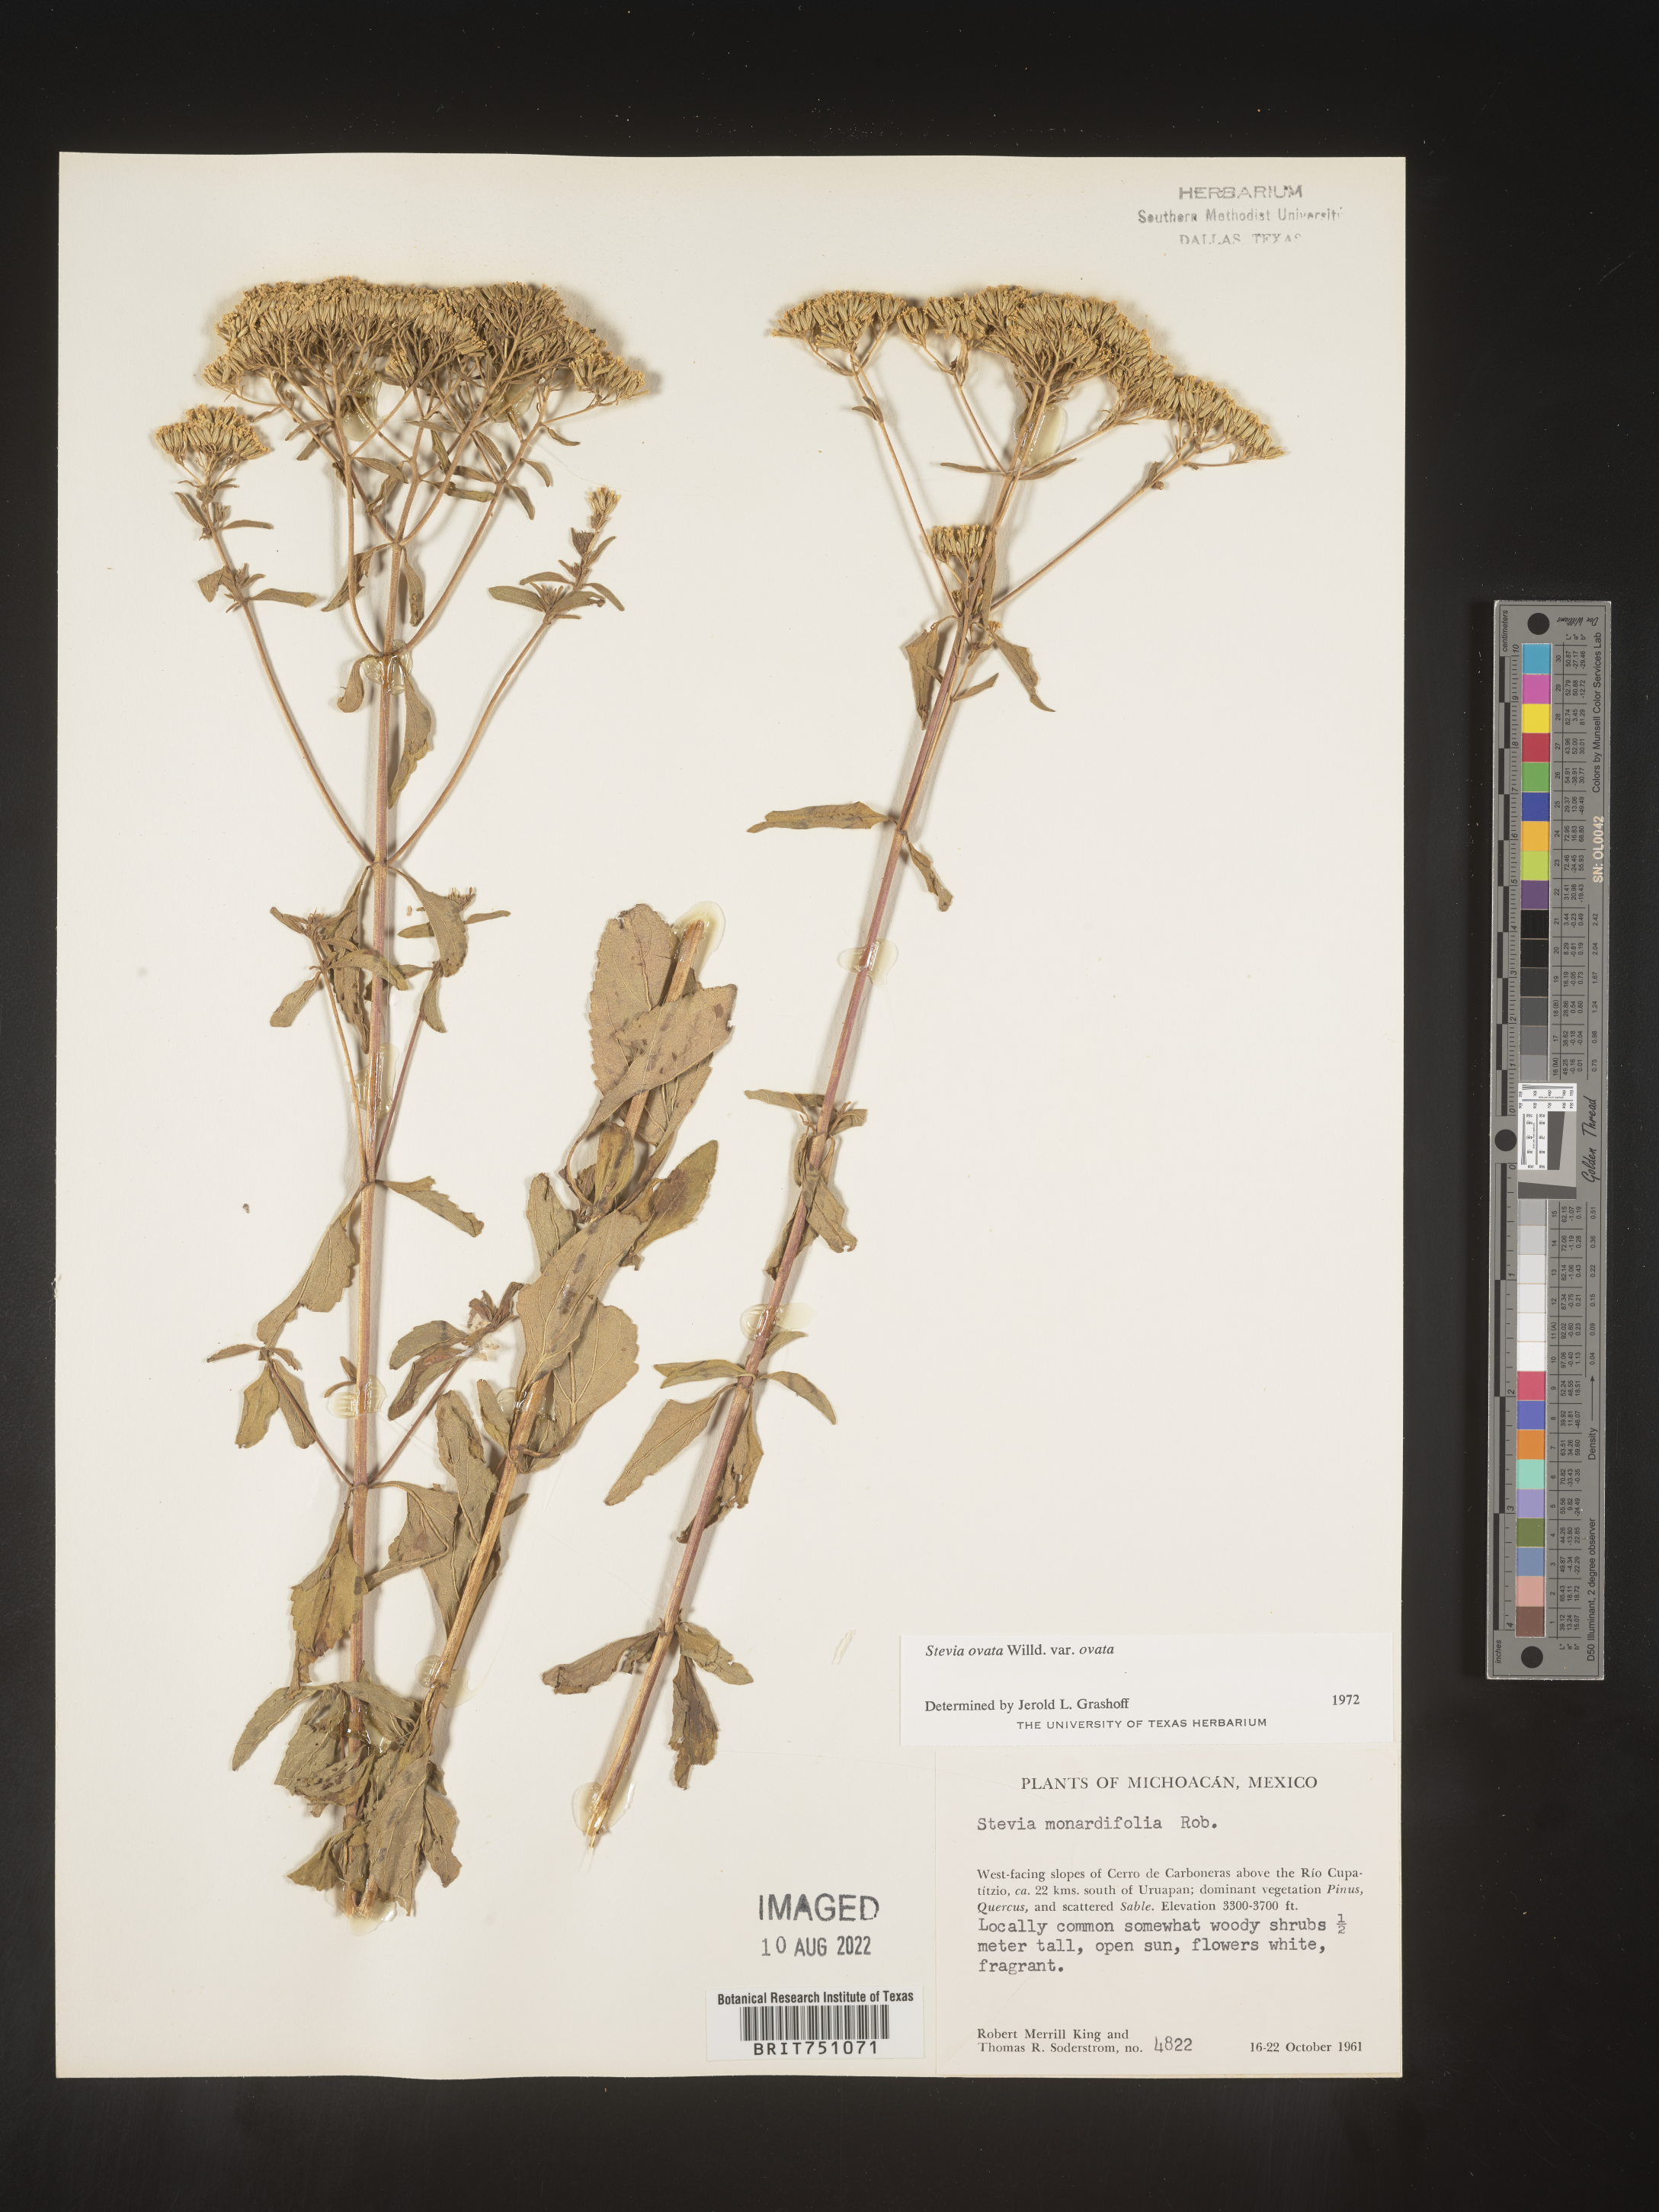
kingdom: Plantae
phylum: Tracheophyta
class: Magnoliopsida
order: Asterales
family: Asteraceae
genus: Stevia
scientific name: Stevia ovata
